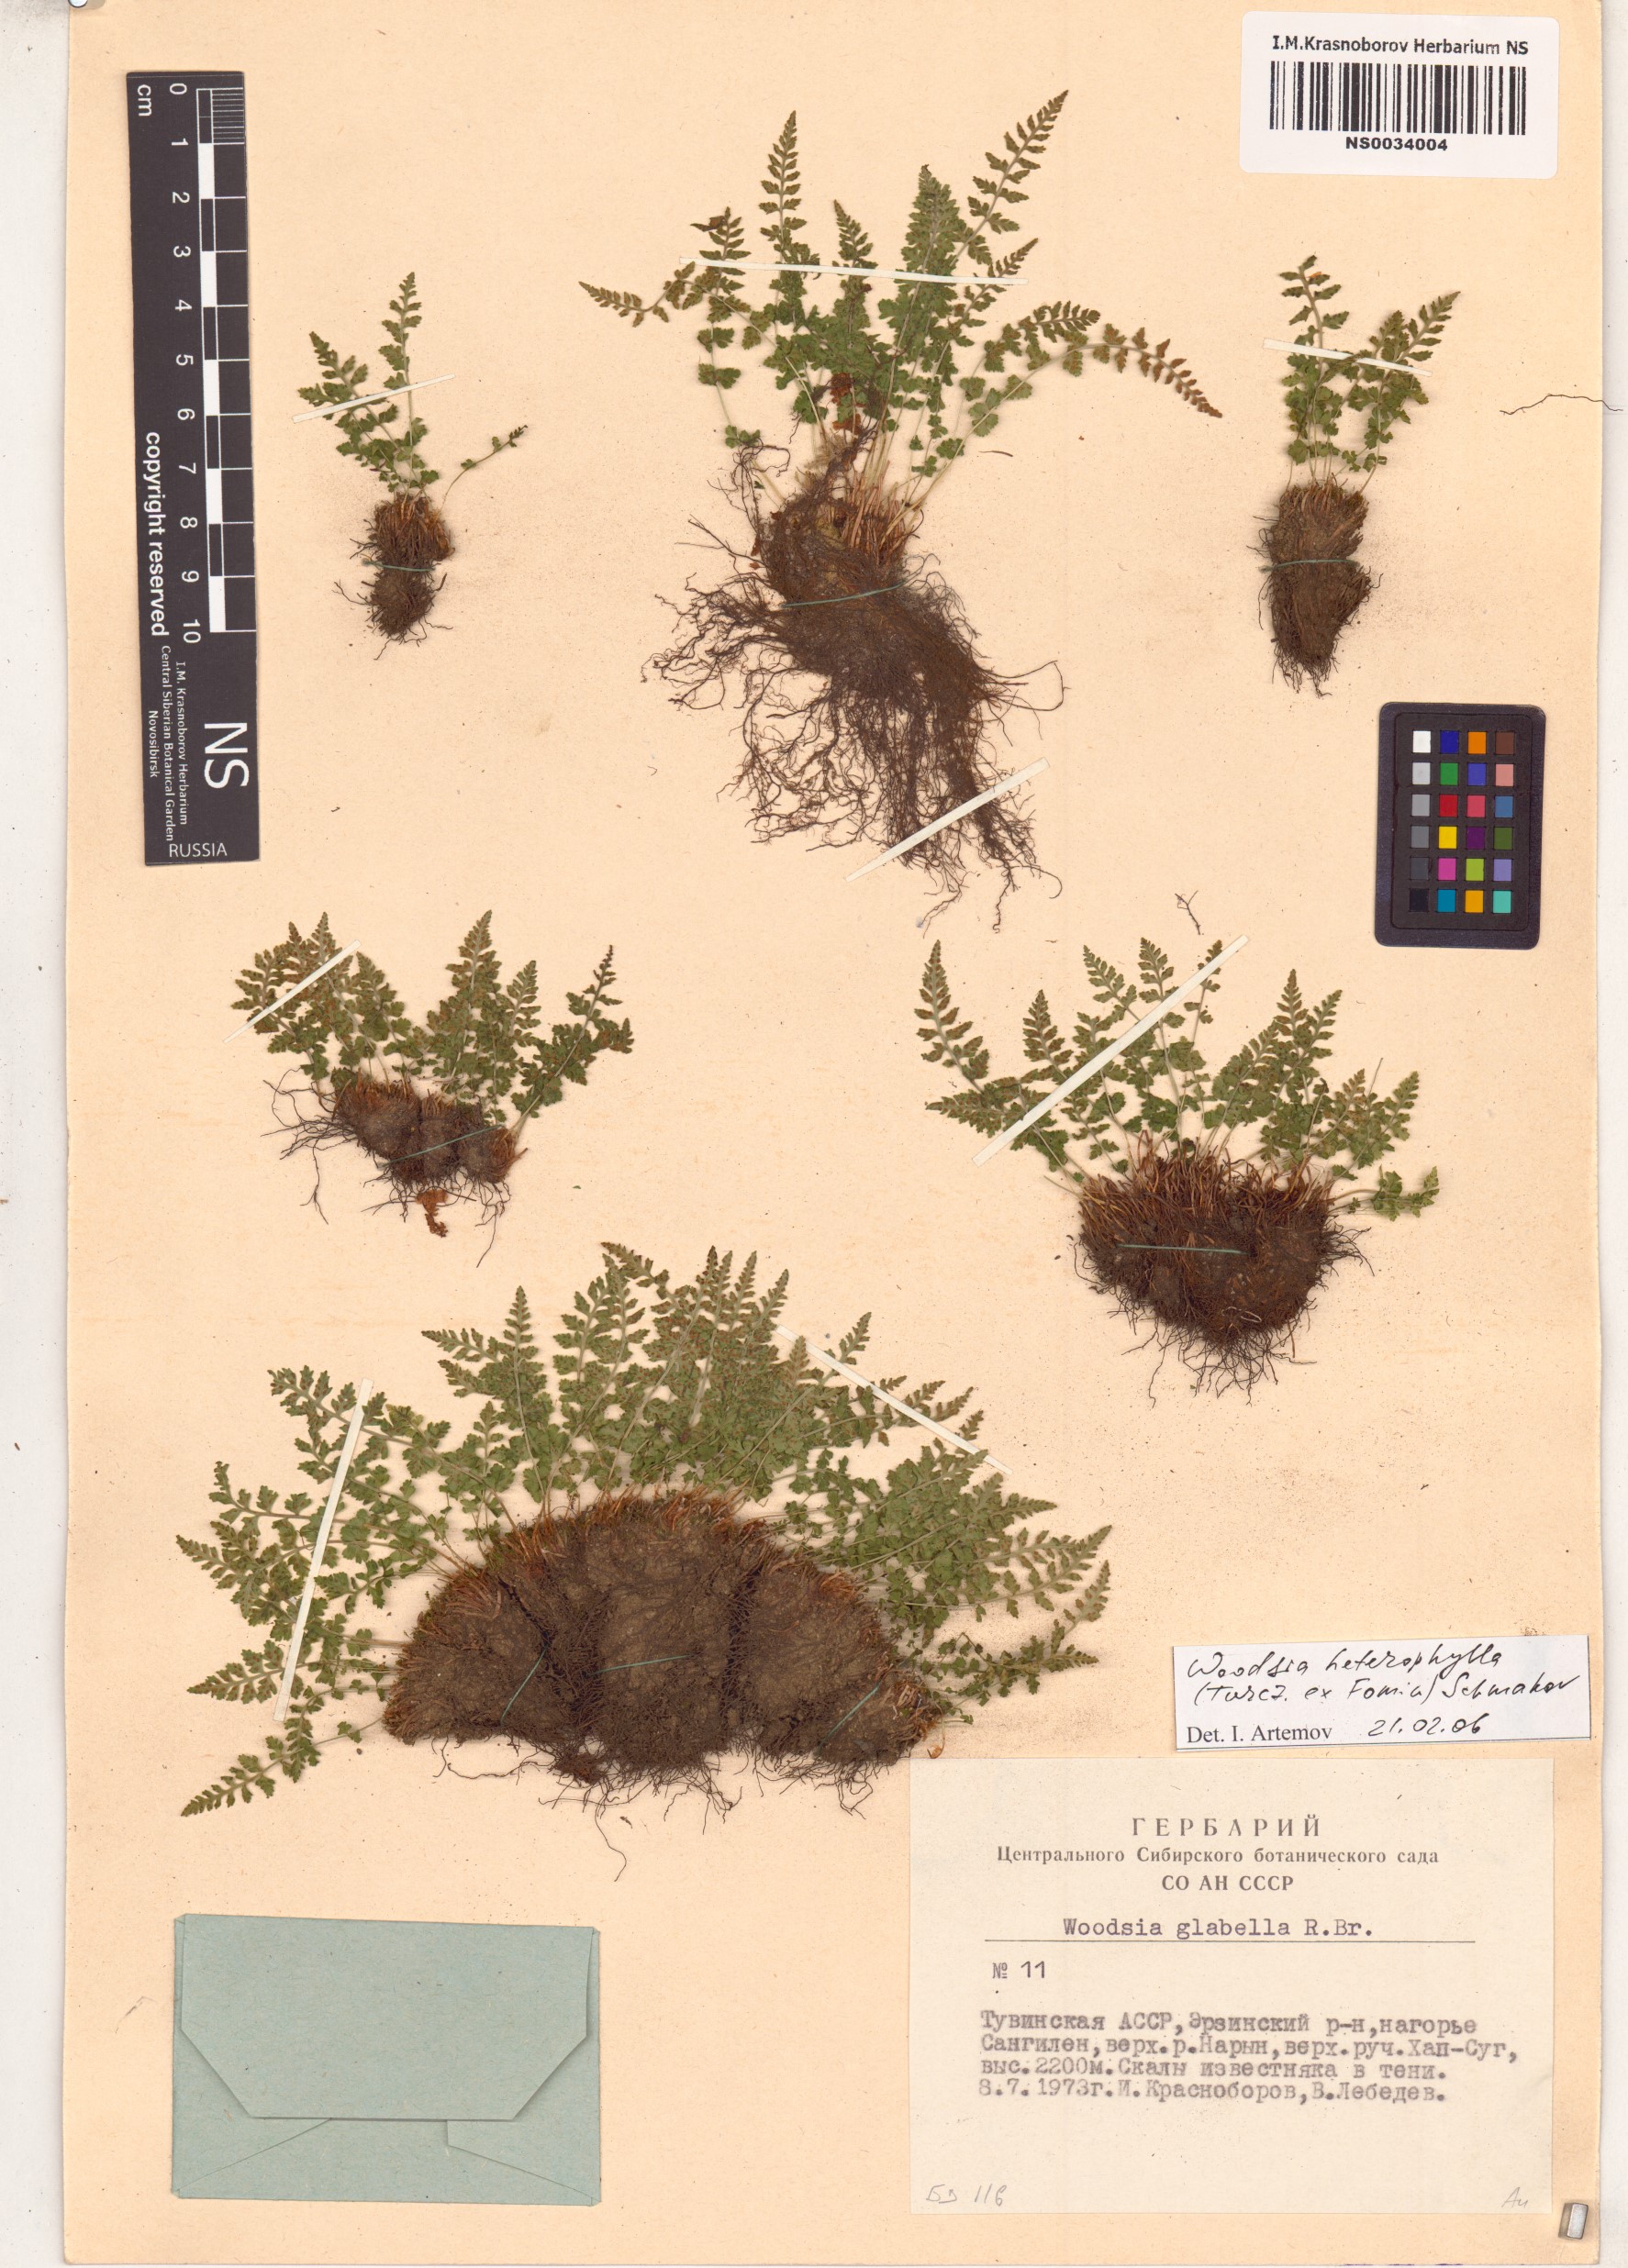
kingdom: Plantae
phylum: Tracheophyta
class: Polypodiopsida
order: Polypodiales
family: Woodsiaceae
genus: Woodsia
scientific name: Woodsia pulchella
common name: Graceful woodsia
